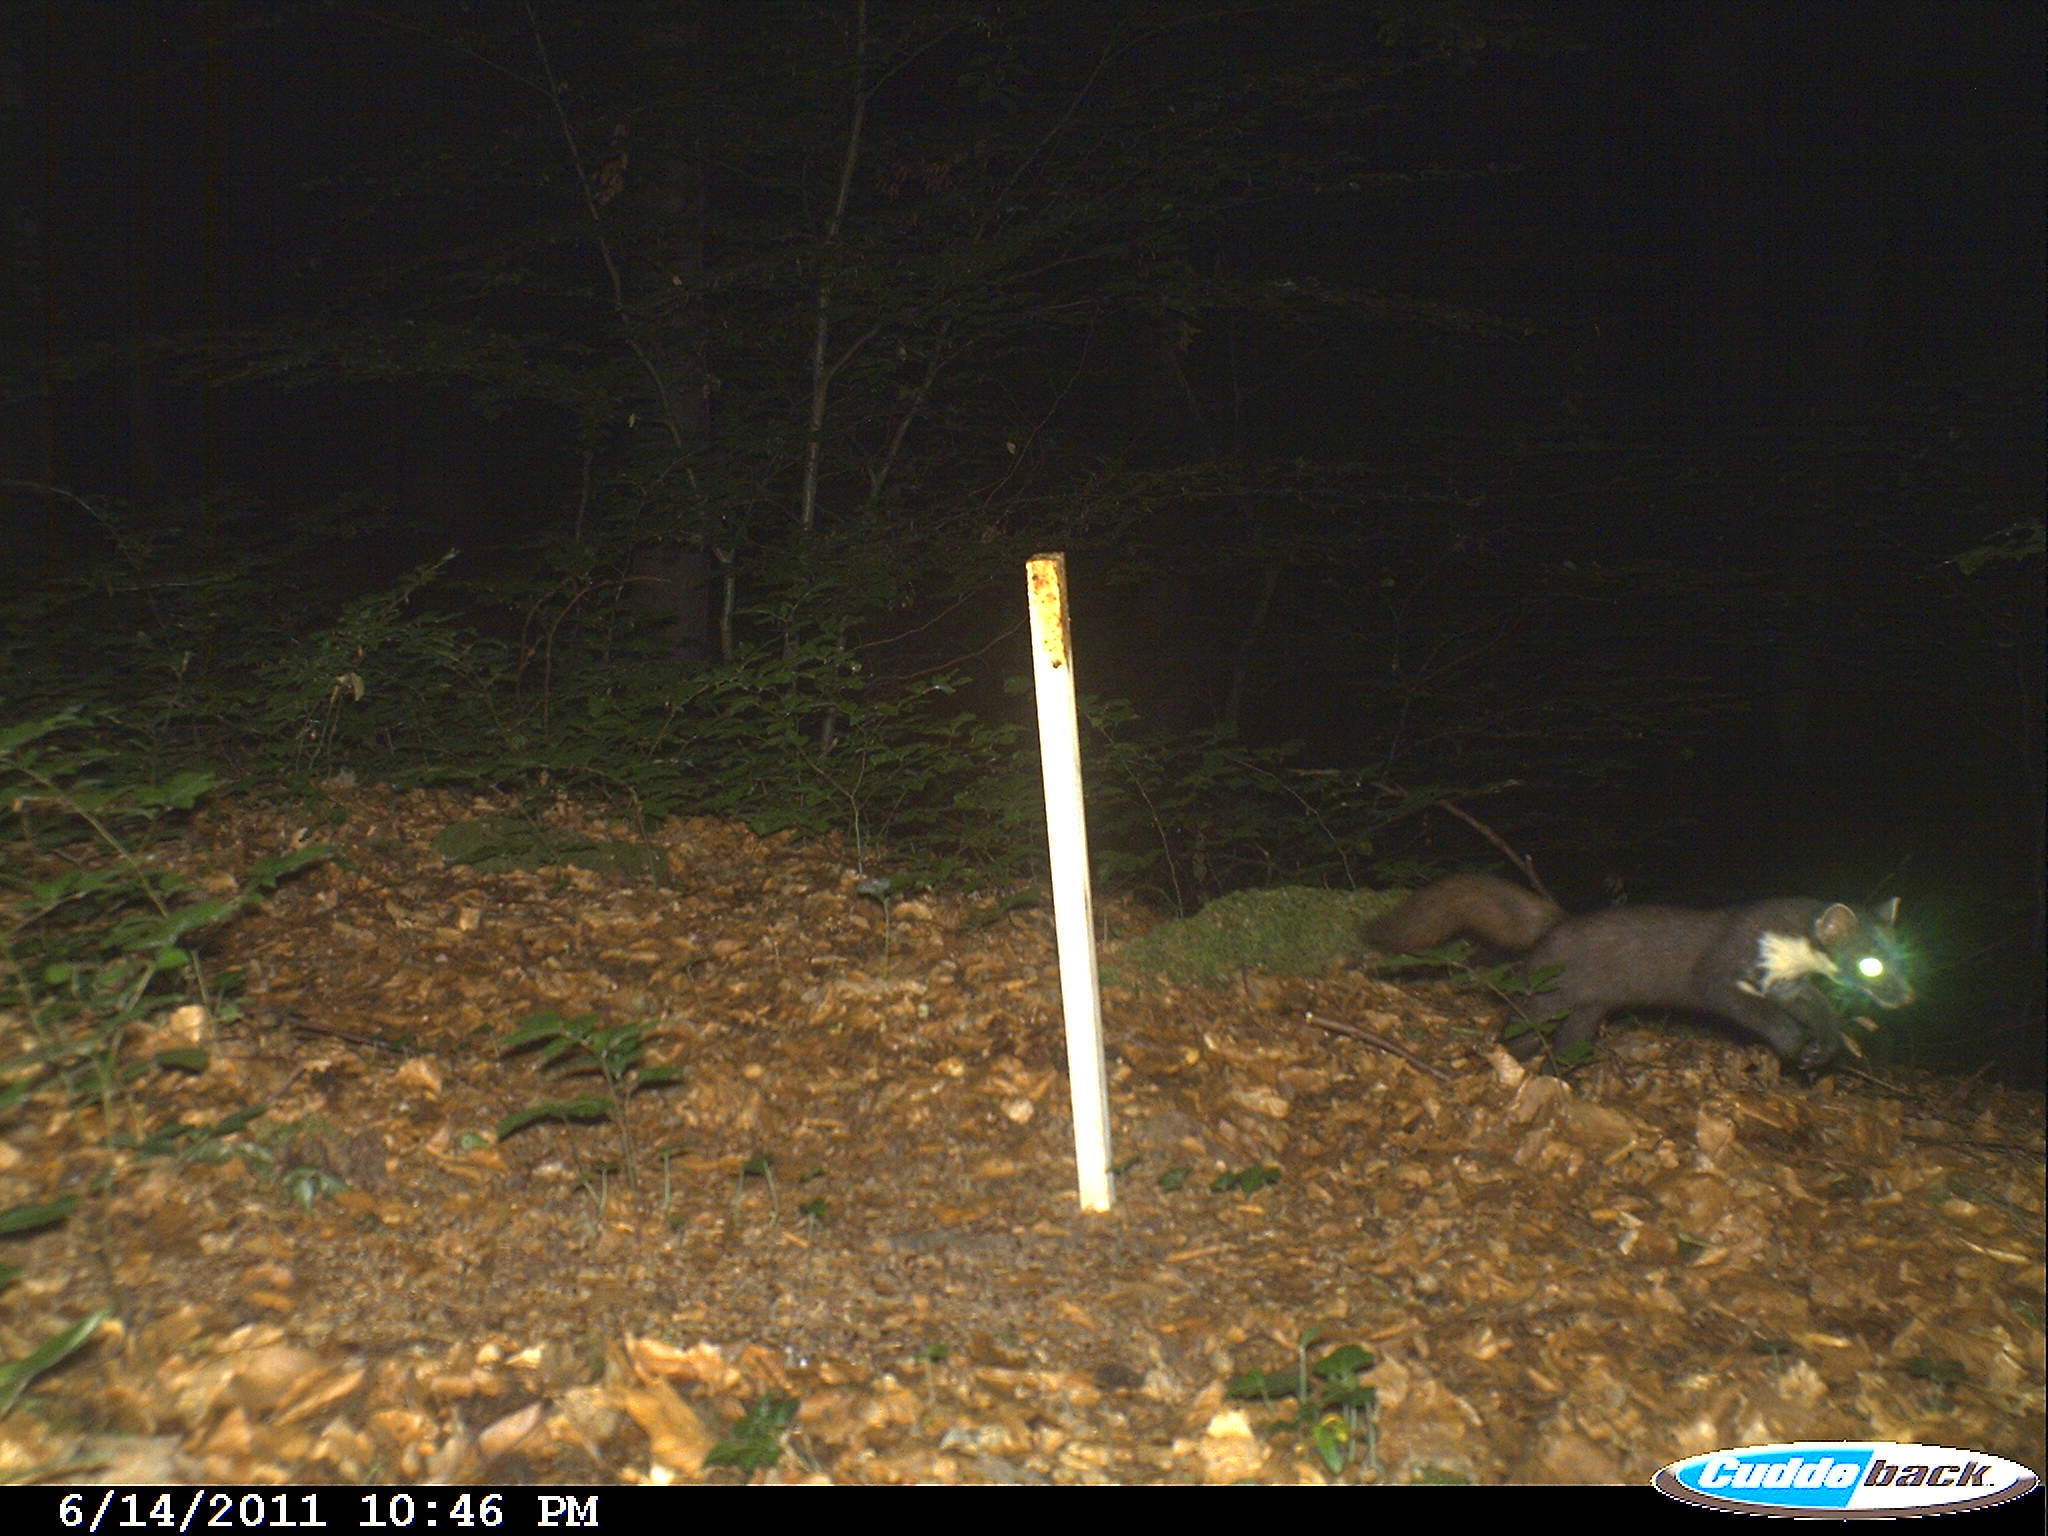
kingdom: Animalia
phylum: Chordata
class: Mammalia
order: Carnivora
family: Mustelidae
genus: Martes
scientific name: Martes
